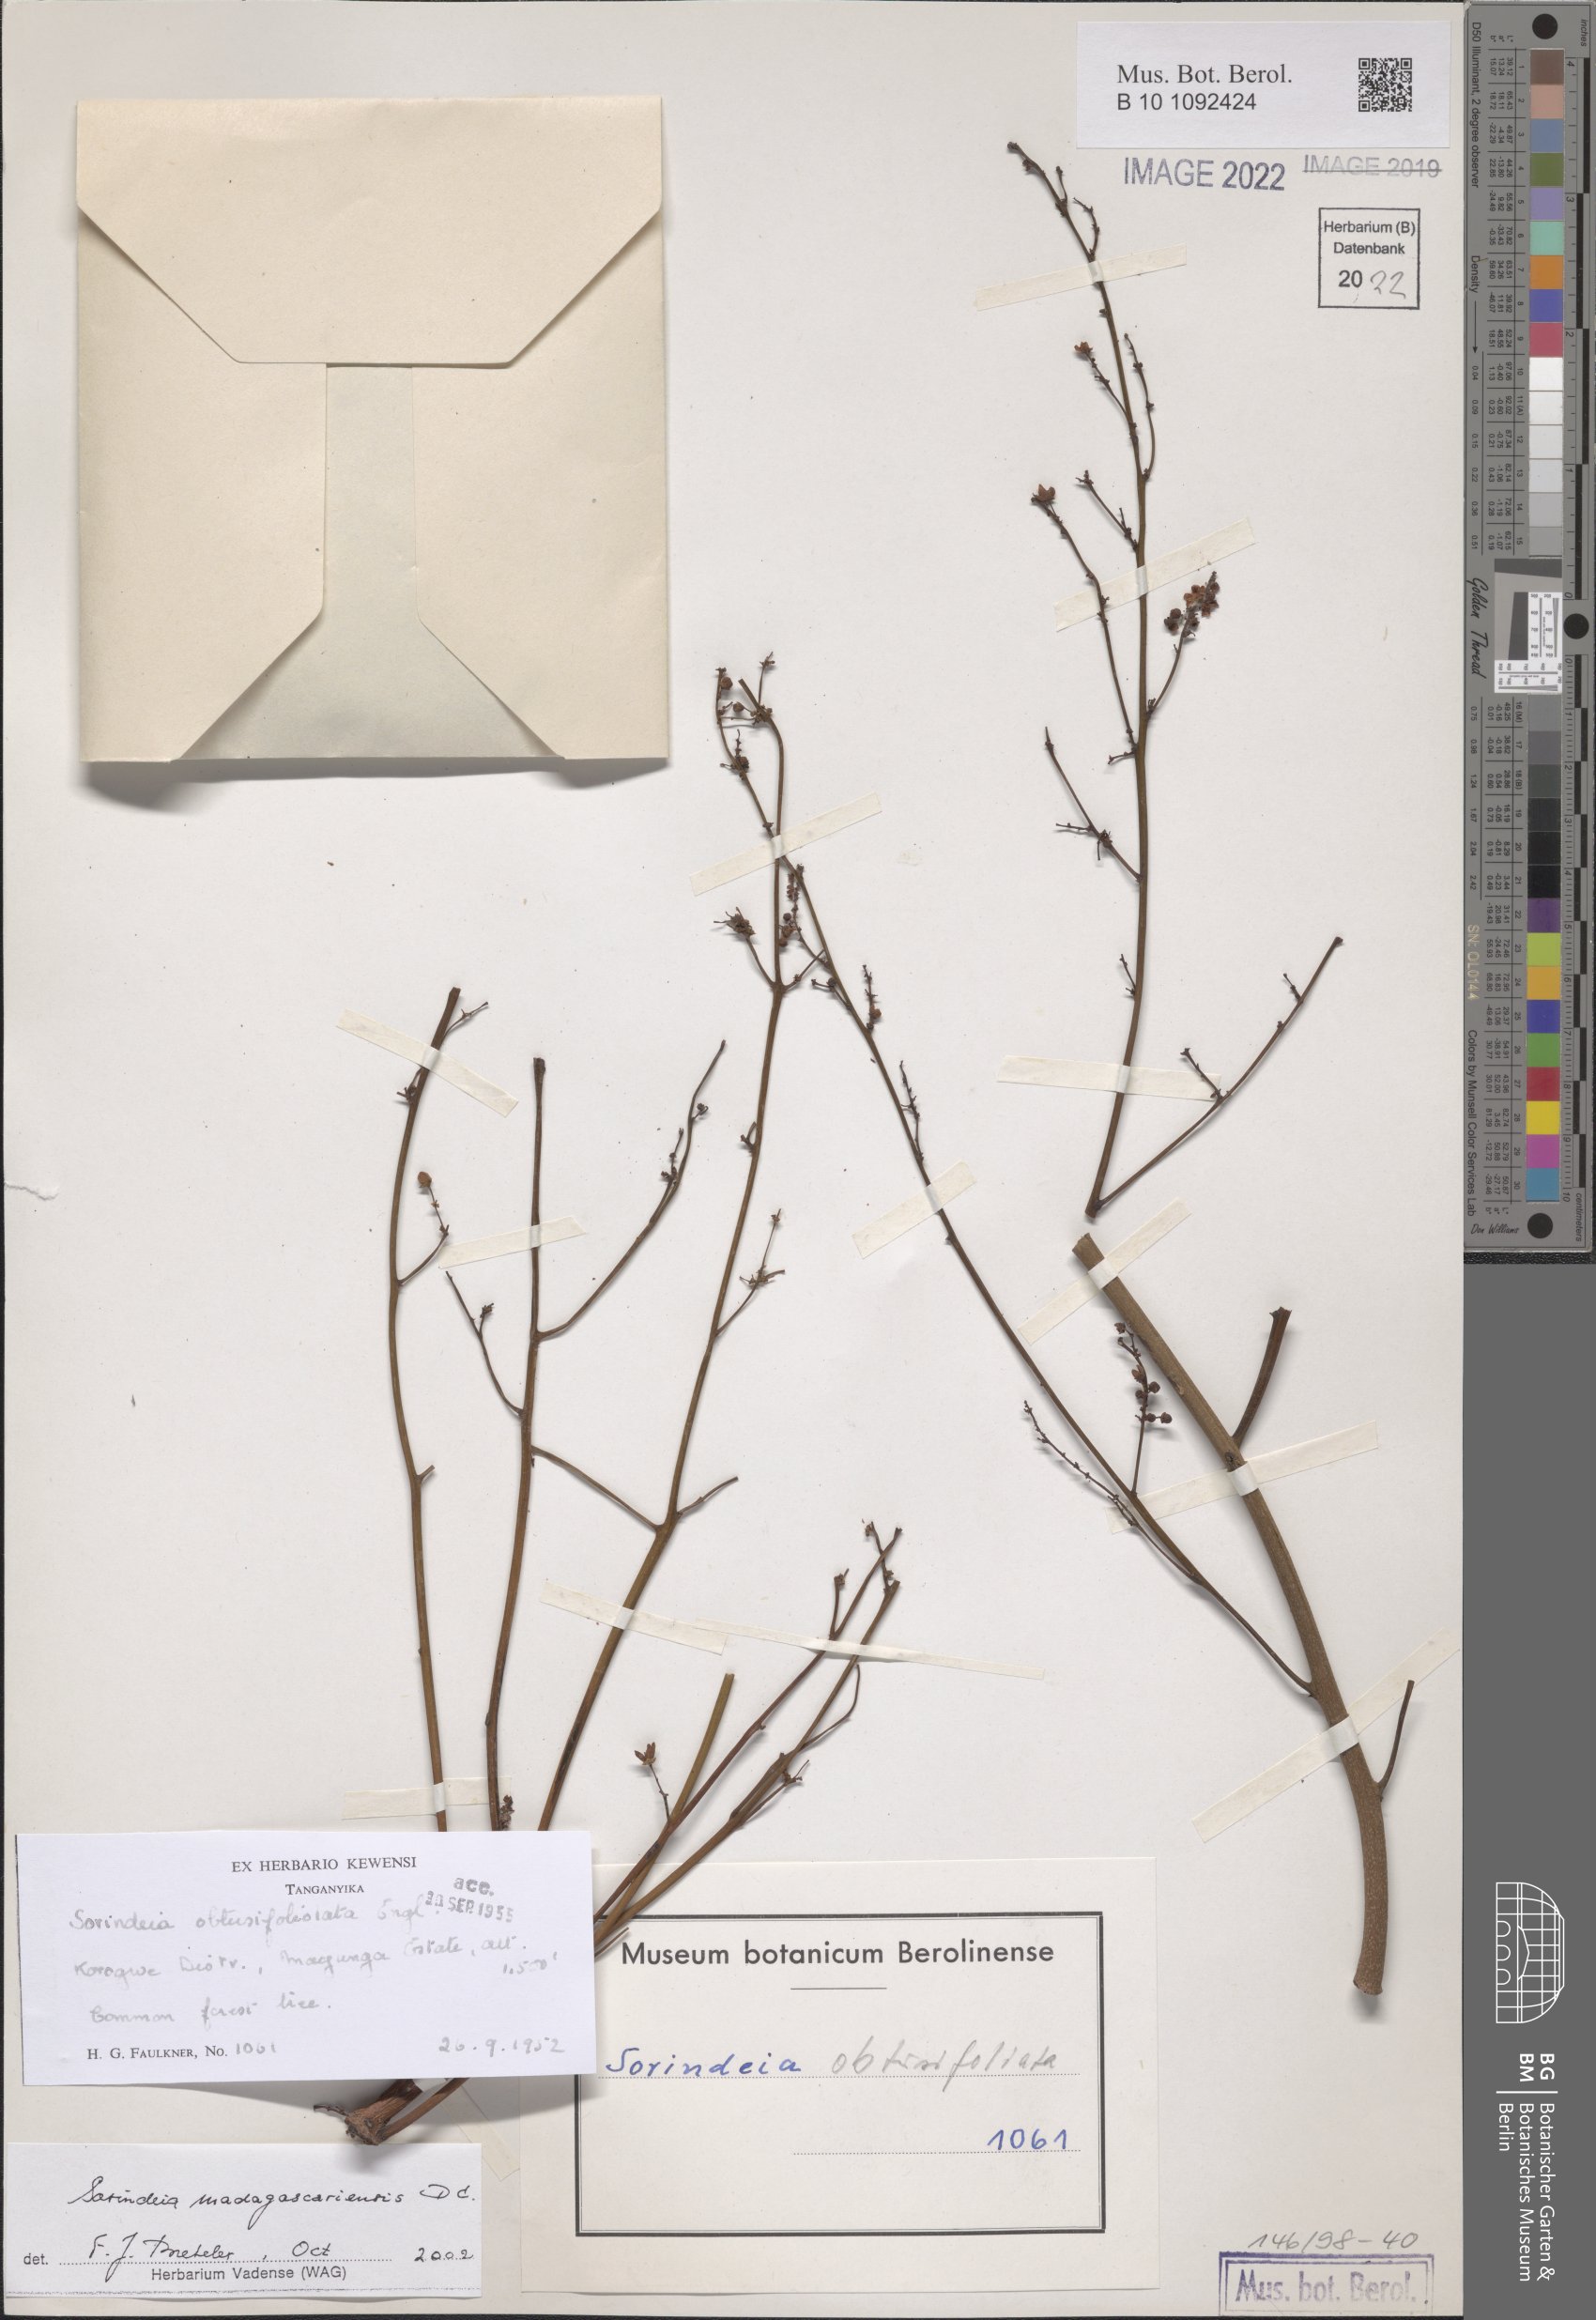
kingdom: Plantae
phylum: Tracheophyta
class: Magnoliopsida
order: Sapindales
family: Anacardiaceae
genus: Sorindeia
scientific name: Sorindeia madagascariensis
